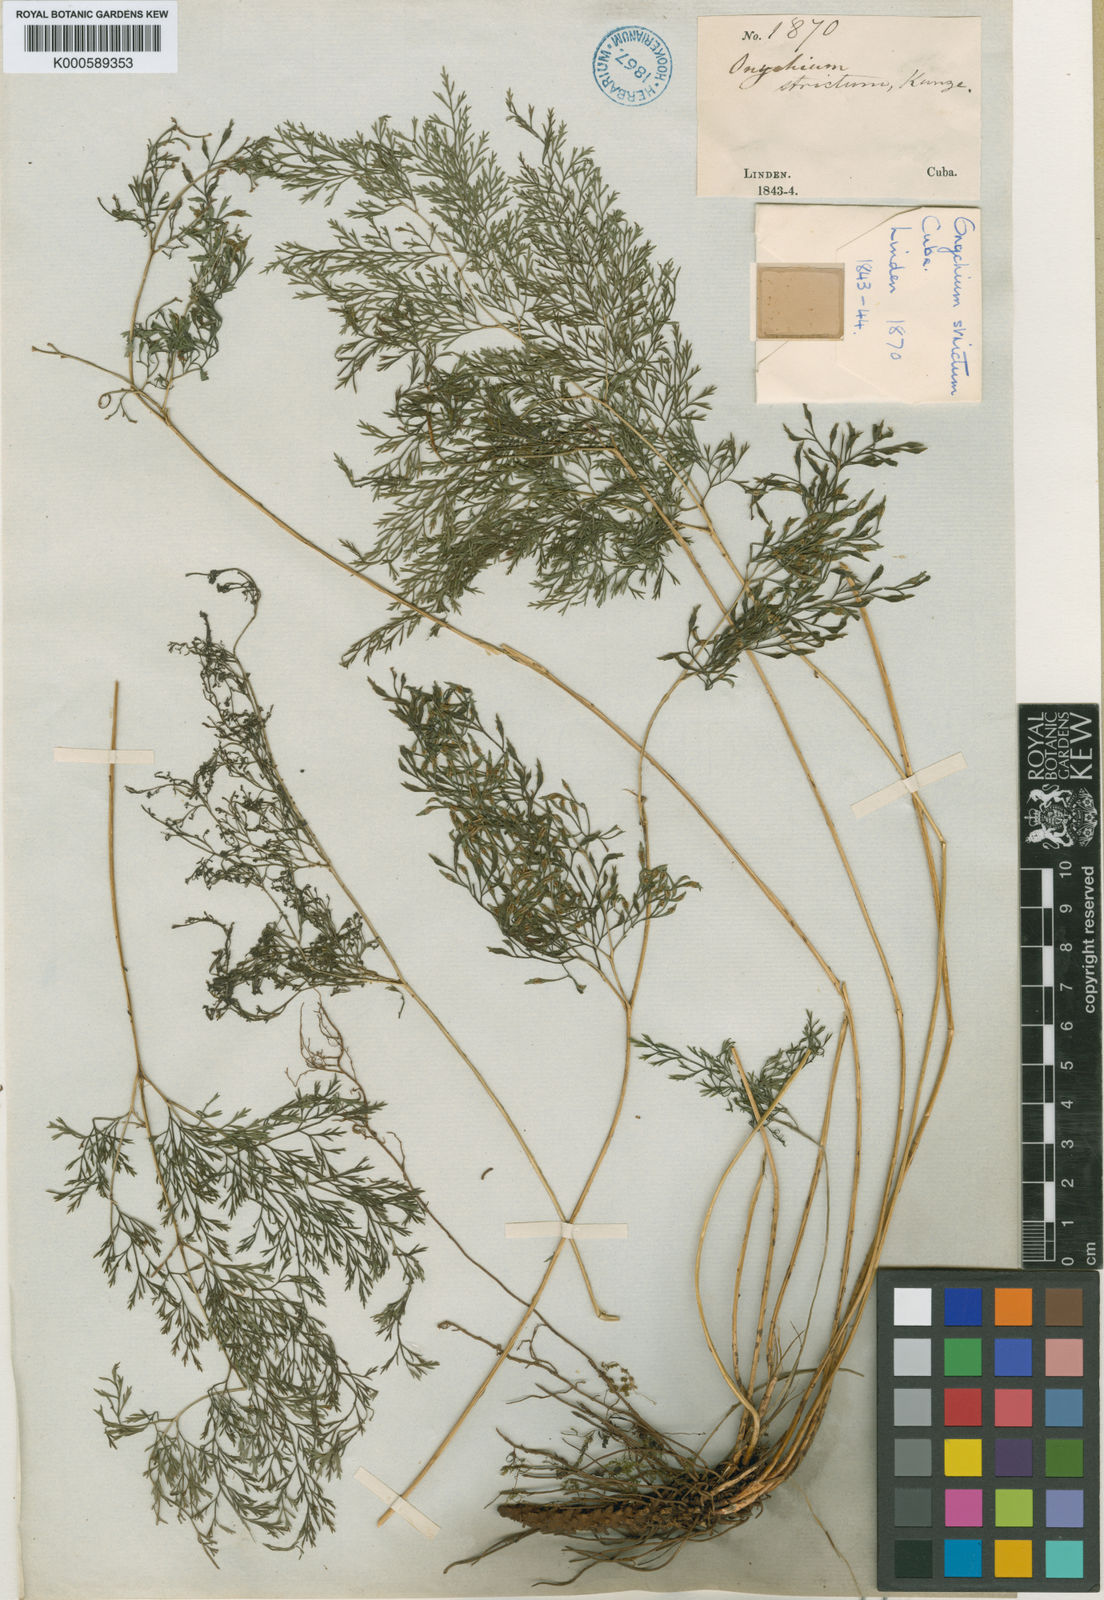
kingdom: Plantae
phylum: Tracheophyta
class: Polypodiopsida
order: Polypodiales
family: Pteridaceae
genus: Pteris
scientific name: Pteris hexagona
